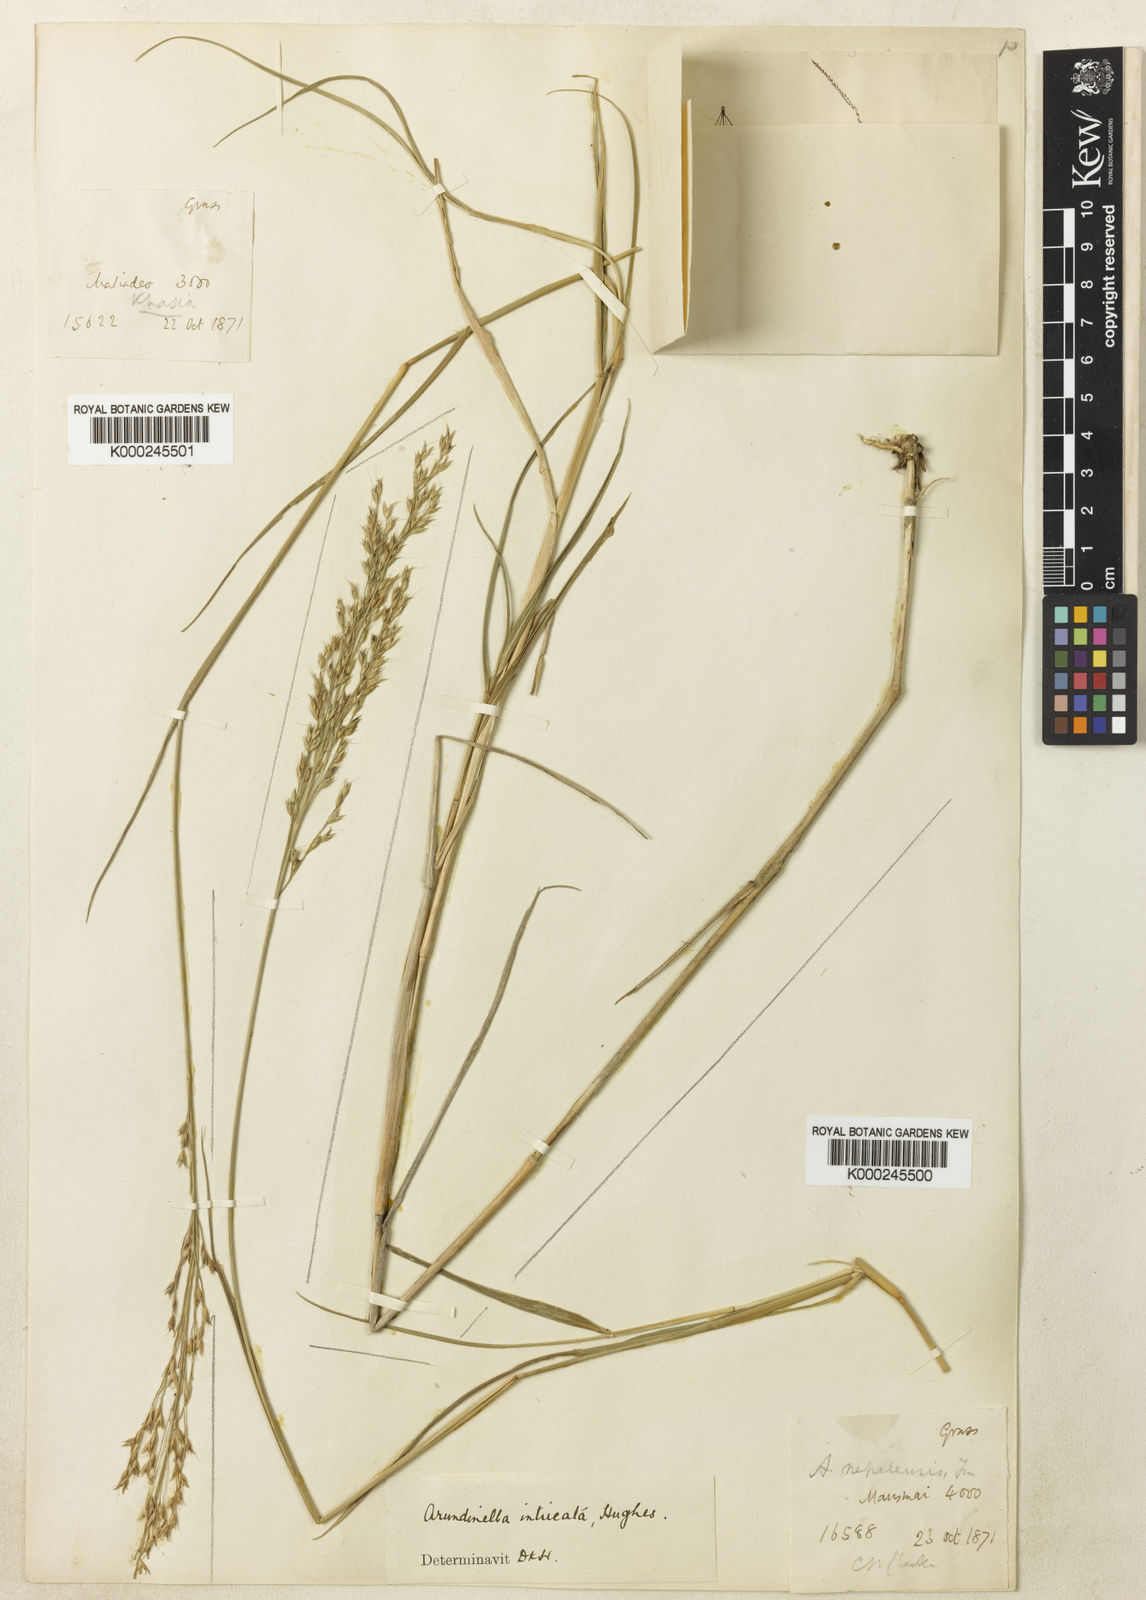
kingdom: Plantae
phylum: Tracheophyta
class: Liliopsida
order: Poales
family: Poaceae
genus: Arundinella
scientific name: Arundinella intricata
